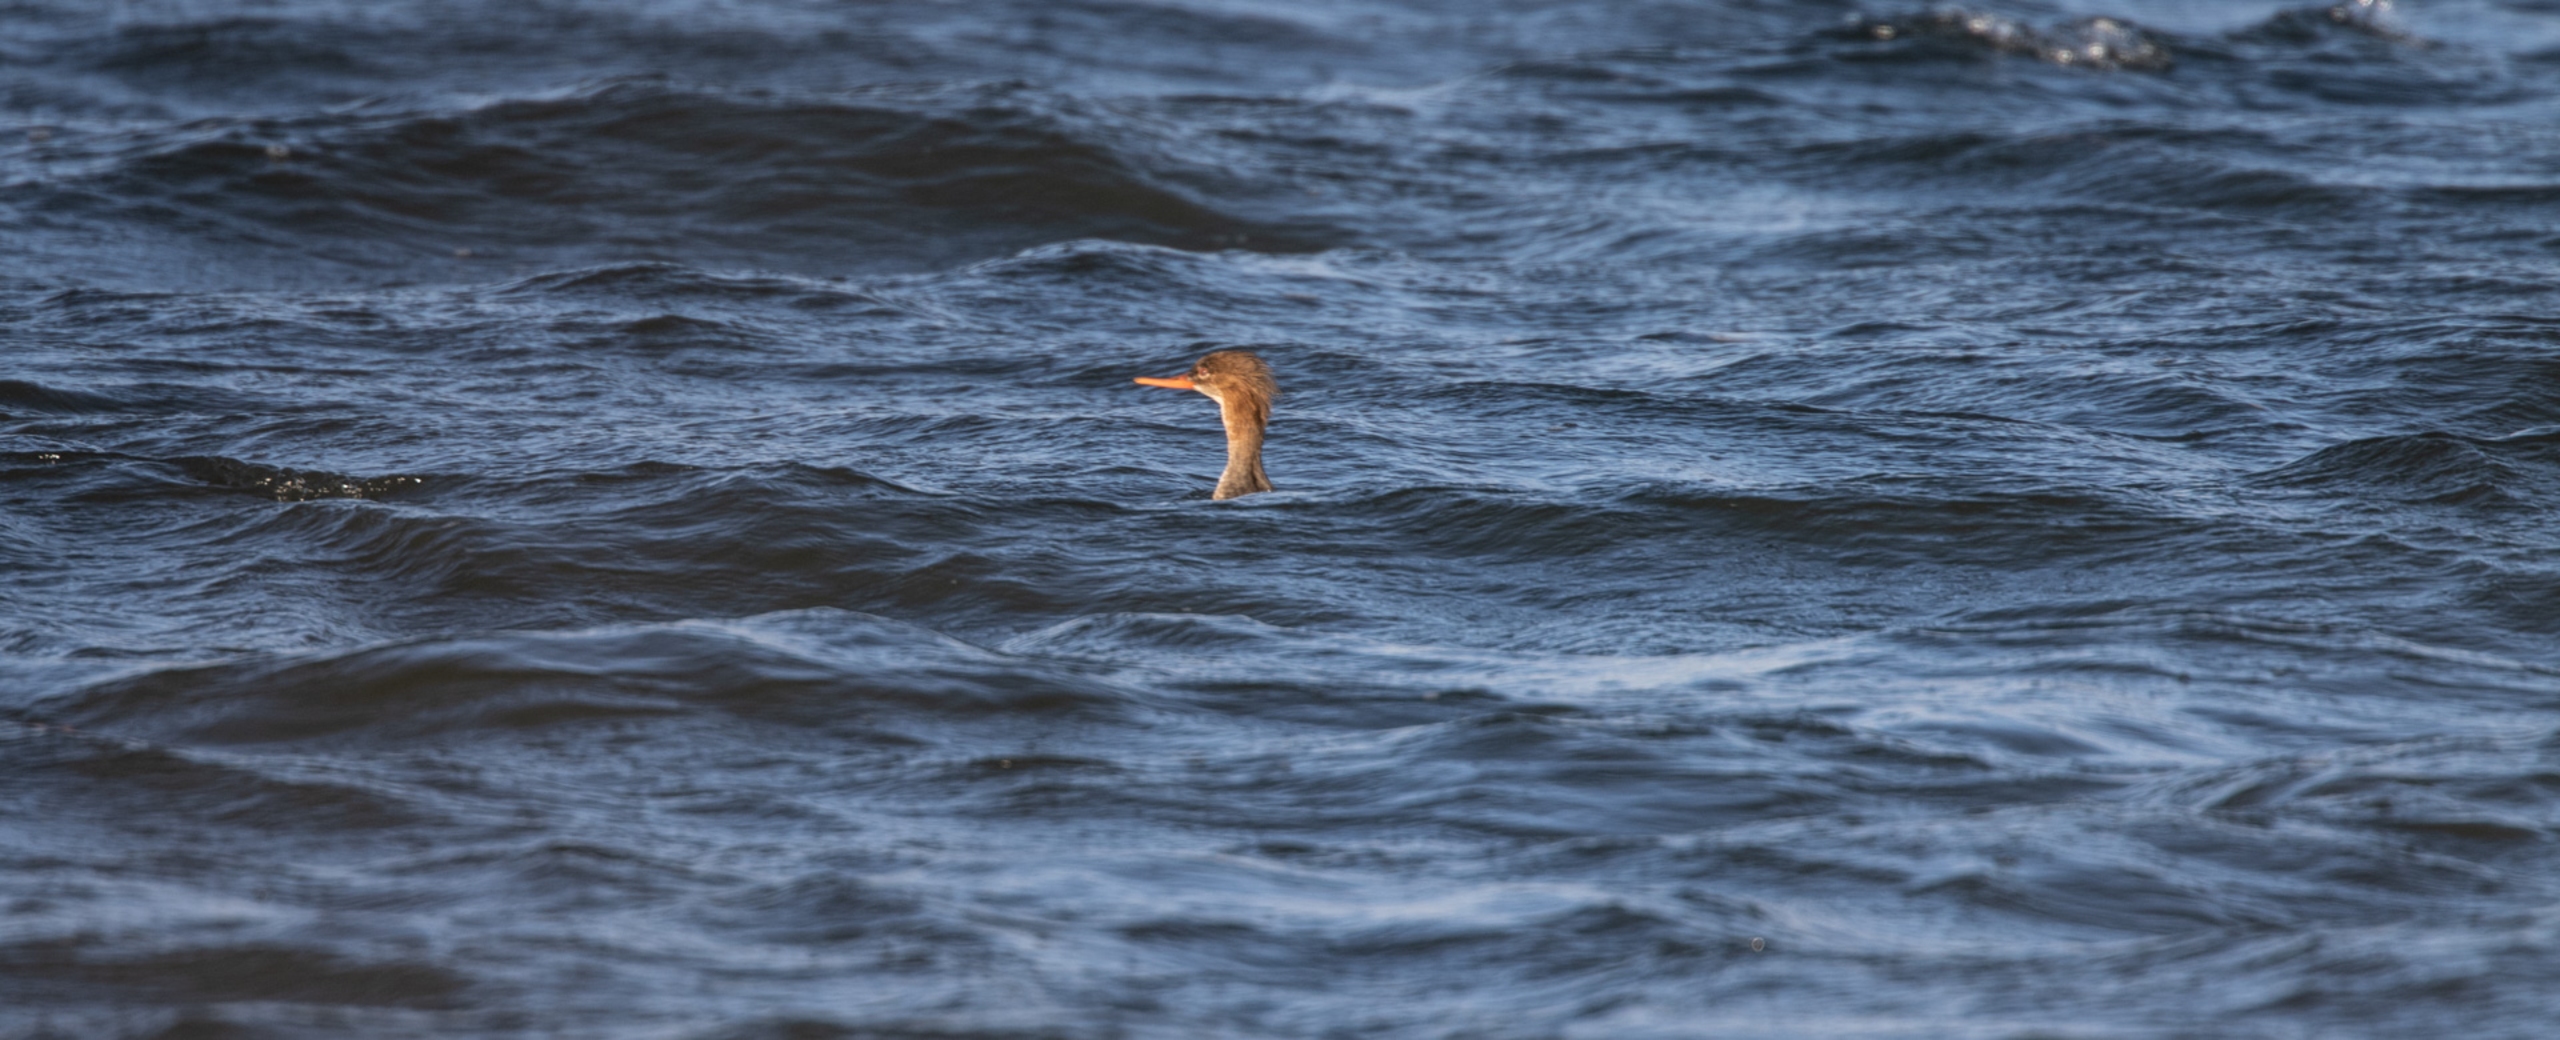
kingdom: Animalia
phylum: Chordata
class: Aves
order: Anseriformes
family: Anatidae
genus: Mergus
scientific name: Mergus serrator
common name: Toppet skallesluger
